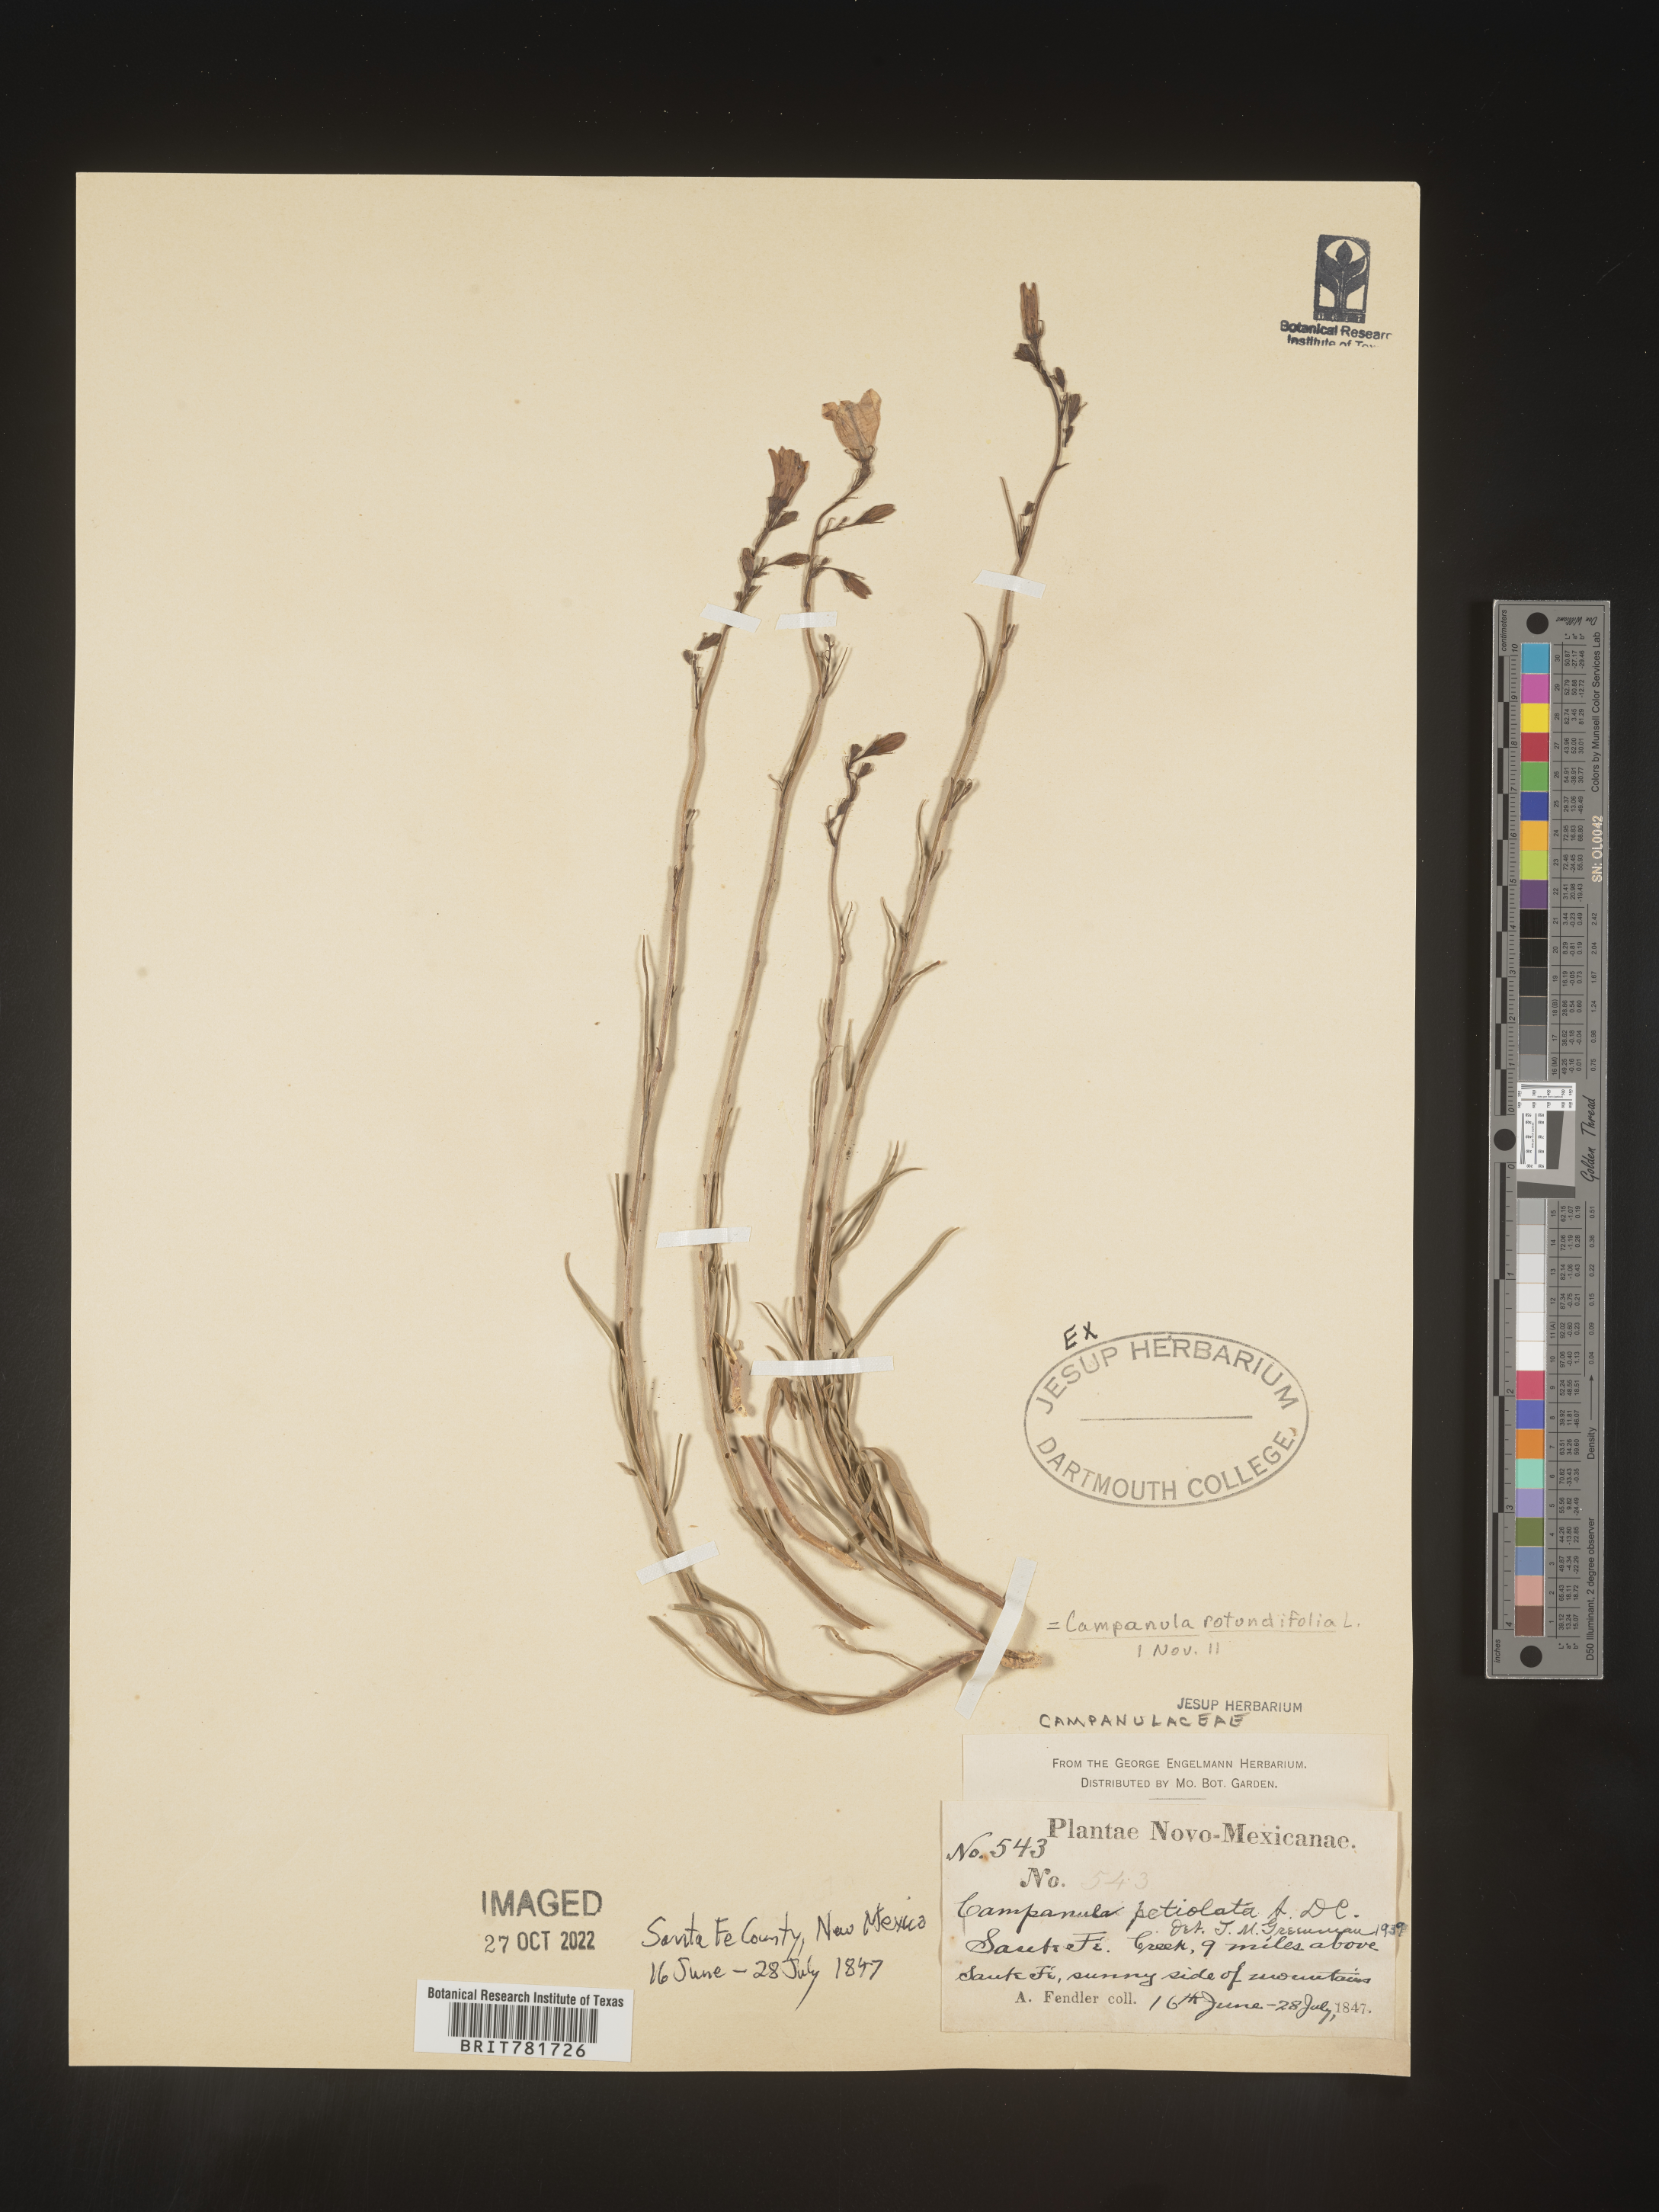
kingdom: Plantae
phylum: Tracheophyta
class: Magnoliopsida
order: Asterales
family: Campanulaceae
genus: Campanula
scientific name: Campanula rotundifolia
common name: Harebell
